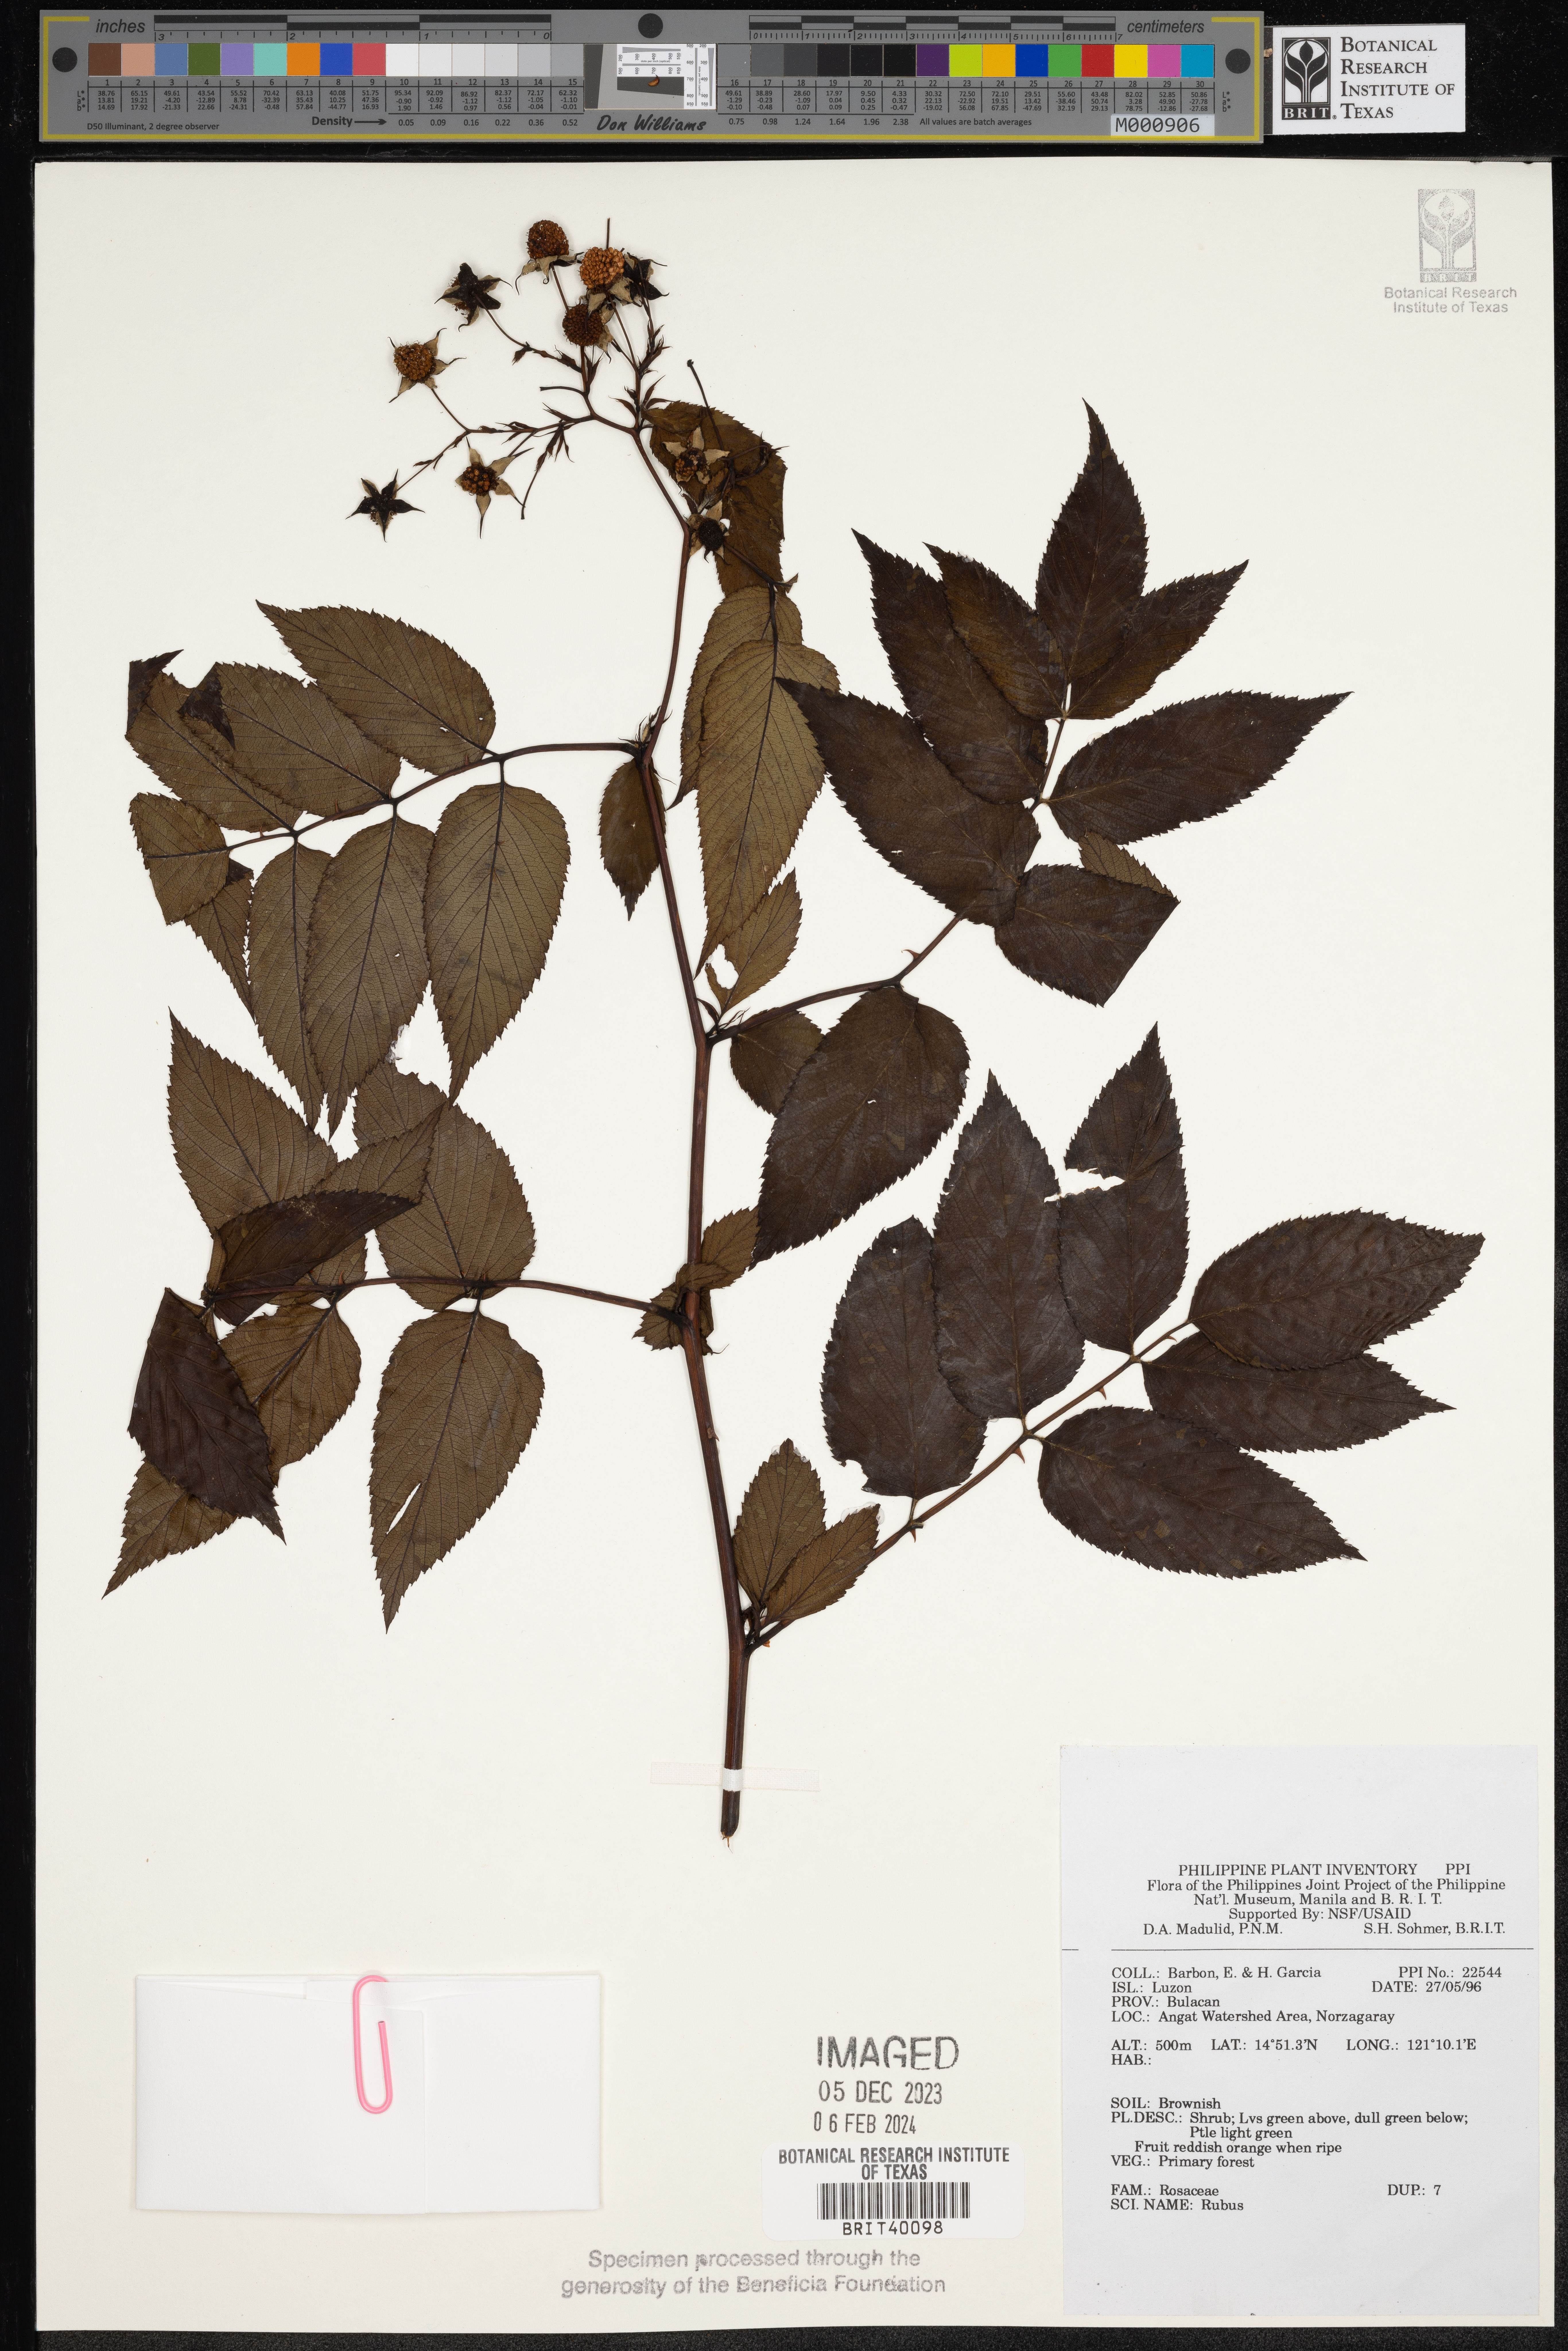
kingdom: Plantae
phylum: Tracheophyta
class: Magnoliopsida
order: Rosales
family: Rosaceae
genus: Rubus
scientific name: Rubus
